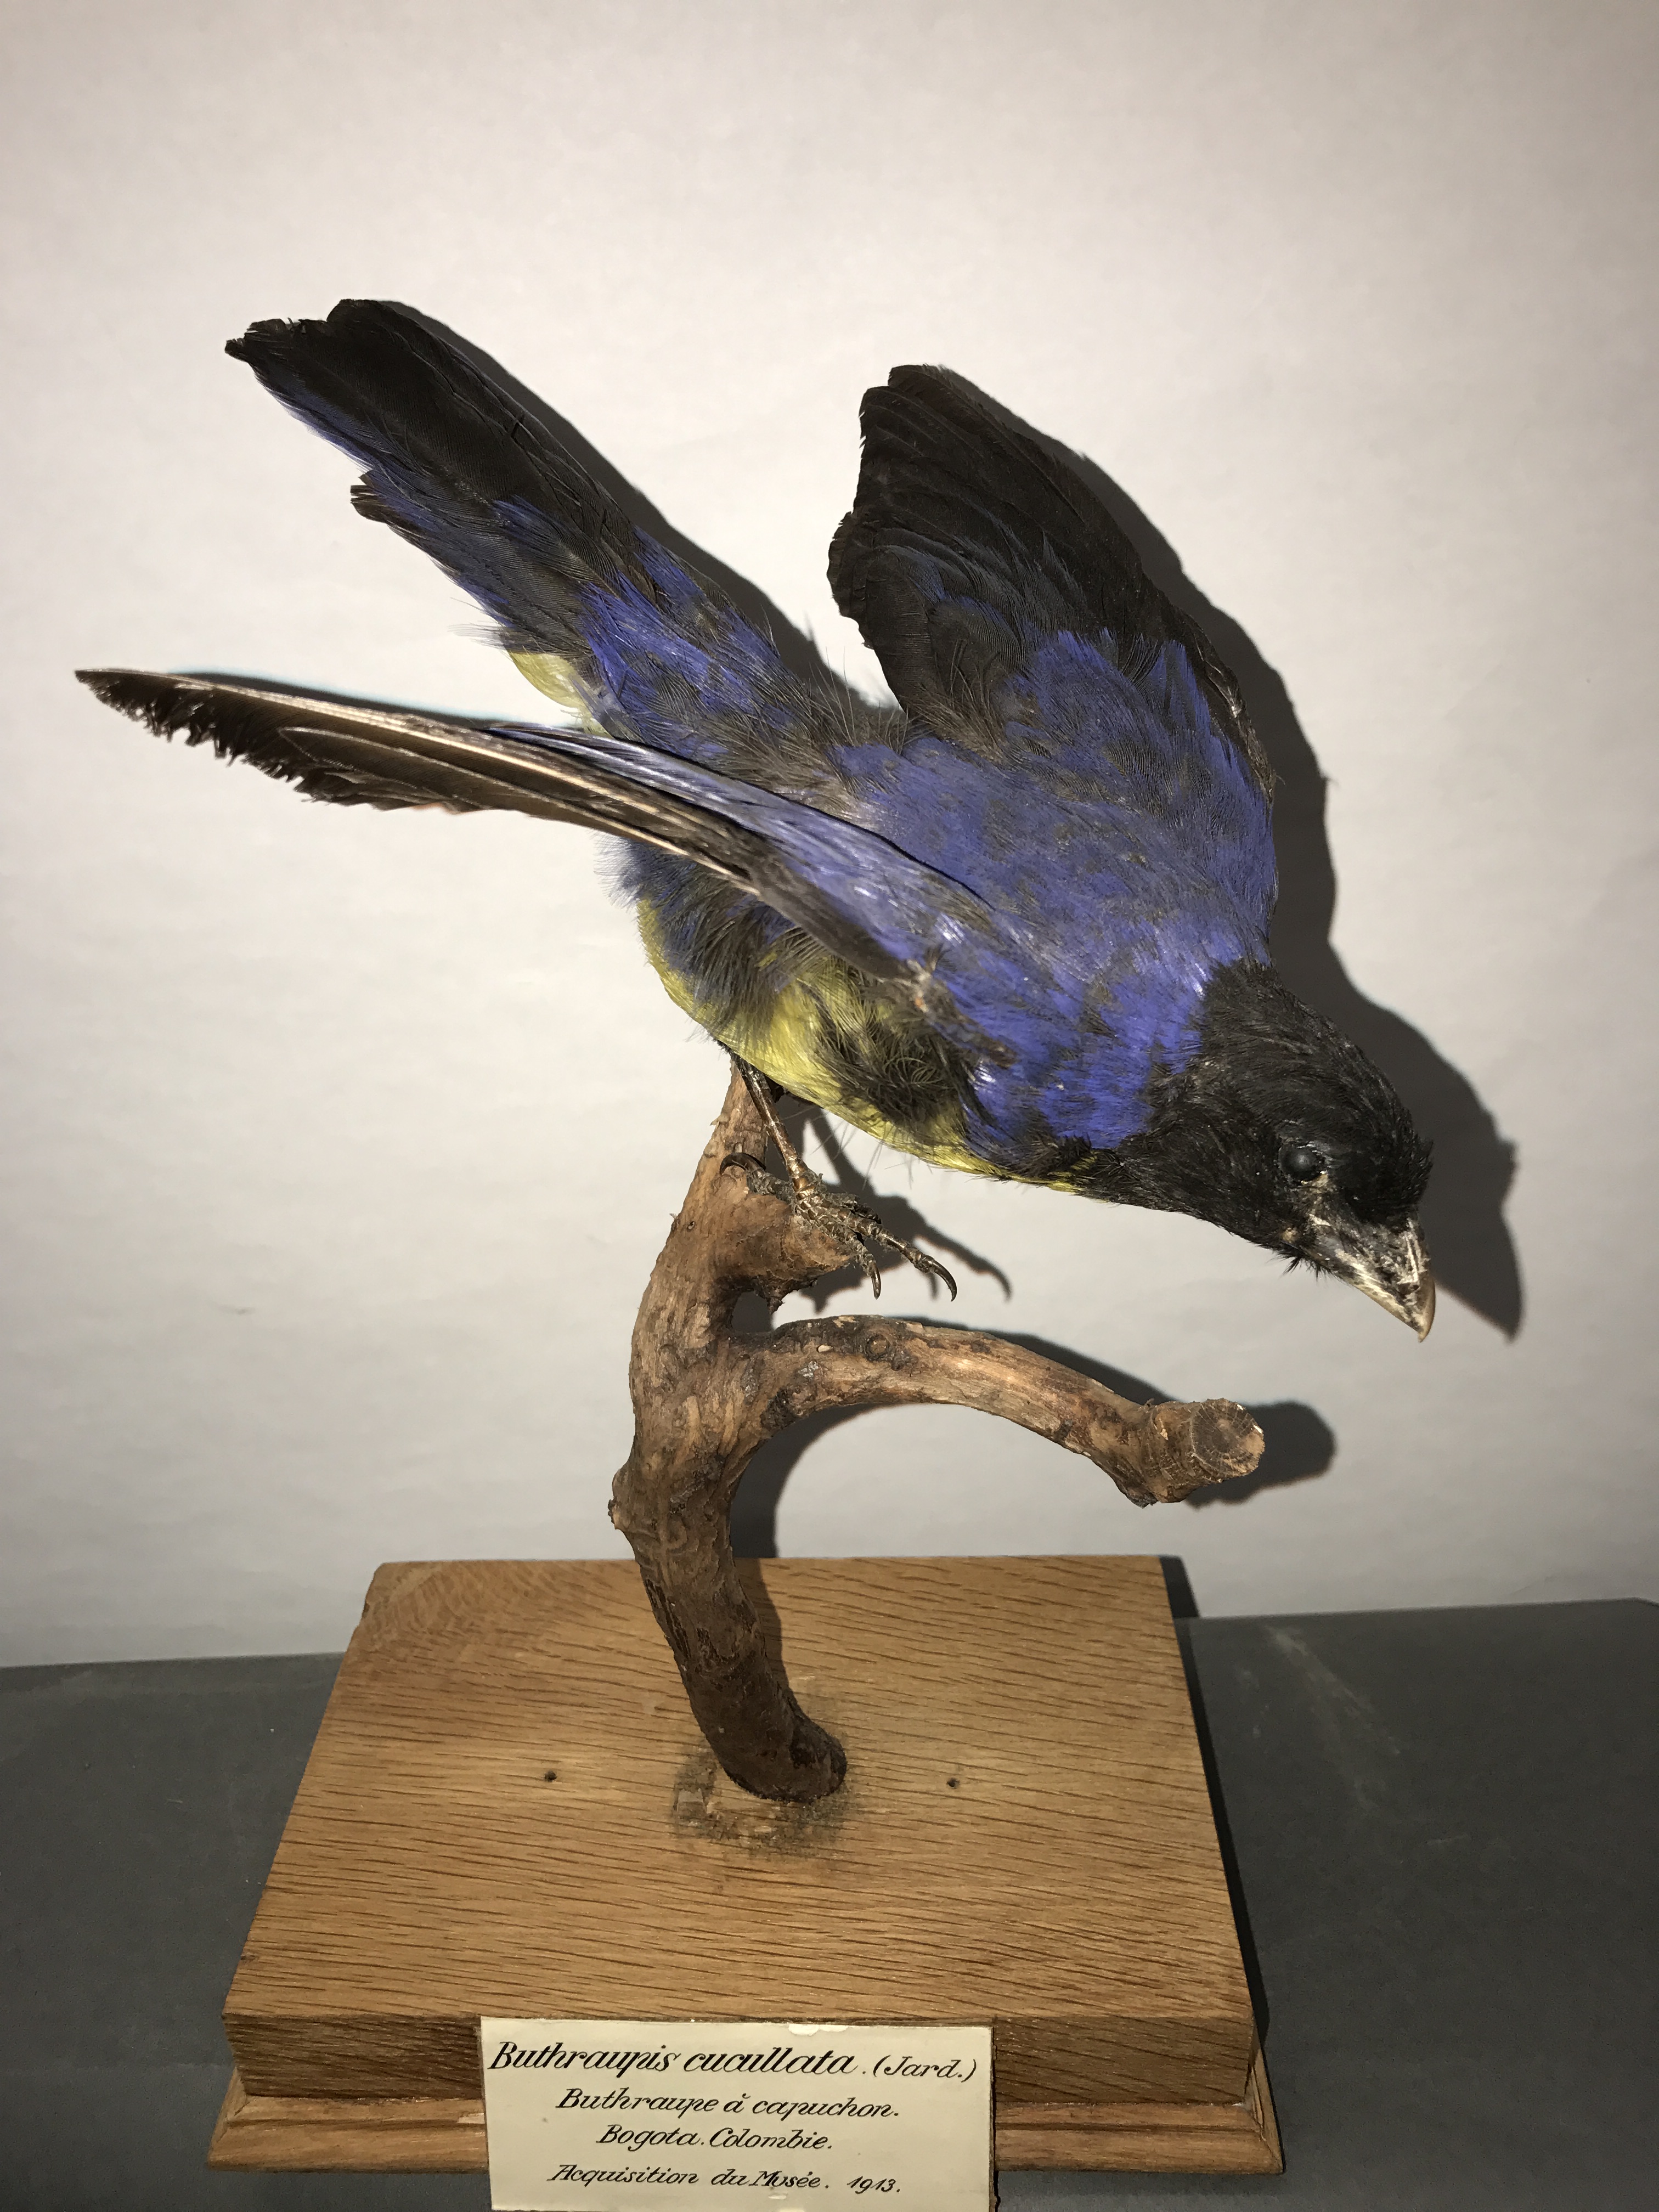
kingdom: Animalia
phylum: Chordata
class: Aves
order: Passeriformes
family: Thraupidae
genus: Buthraupis
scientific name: Buthraupis montana
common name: Hooded mountain tanager
